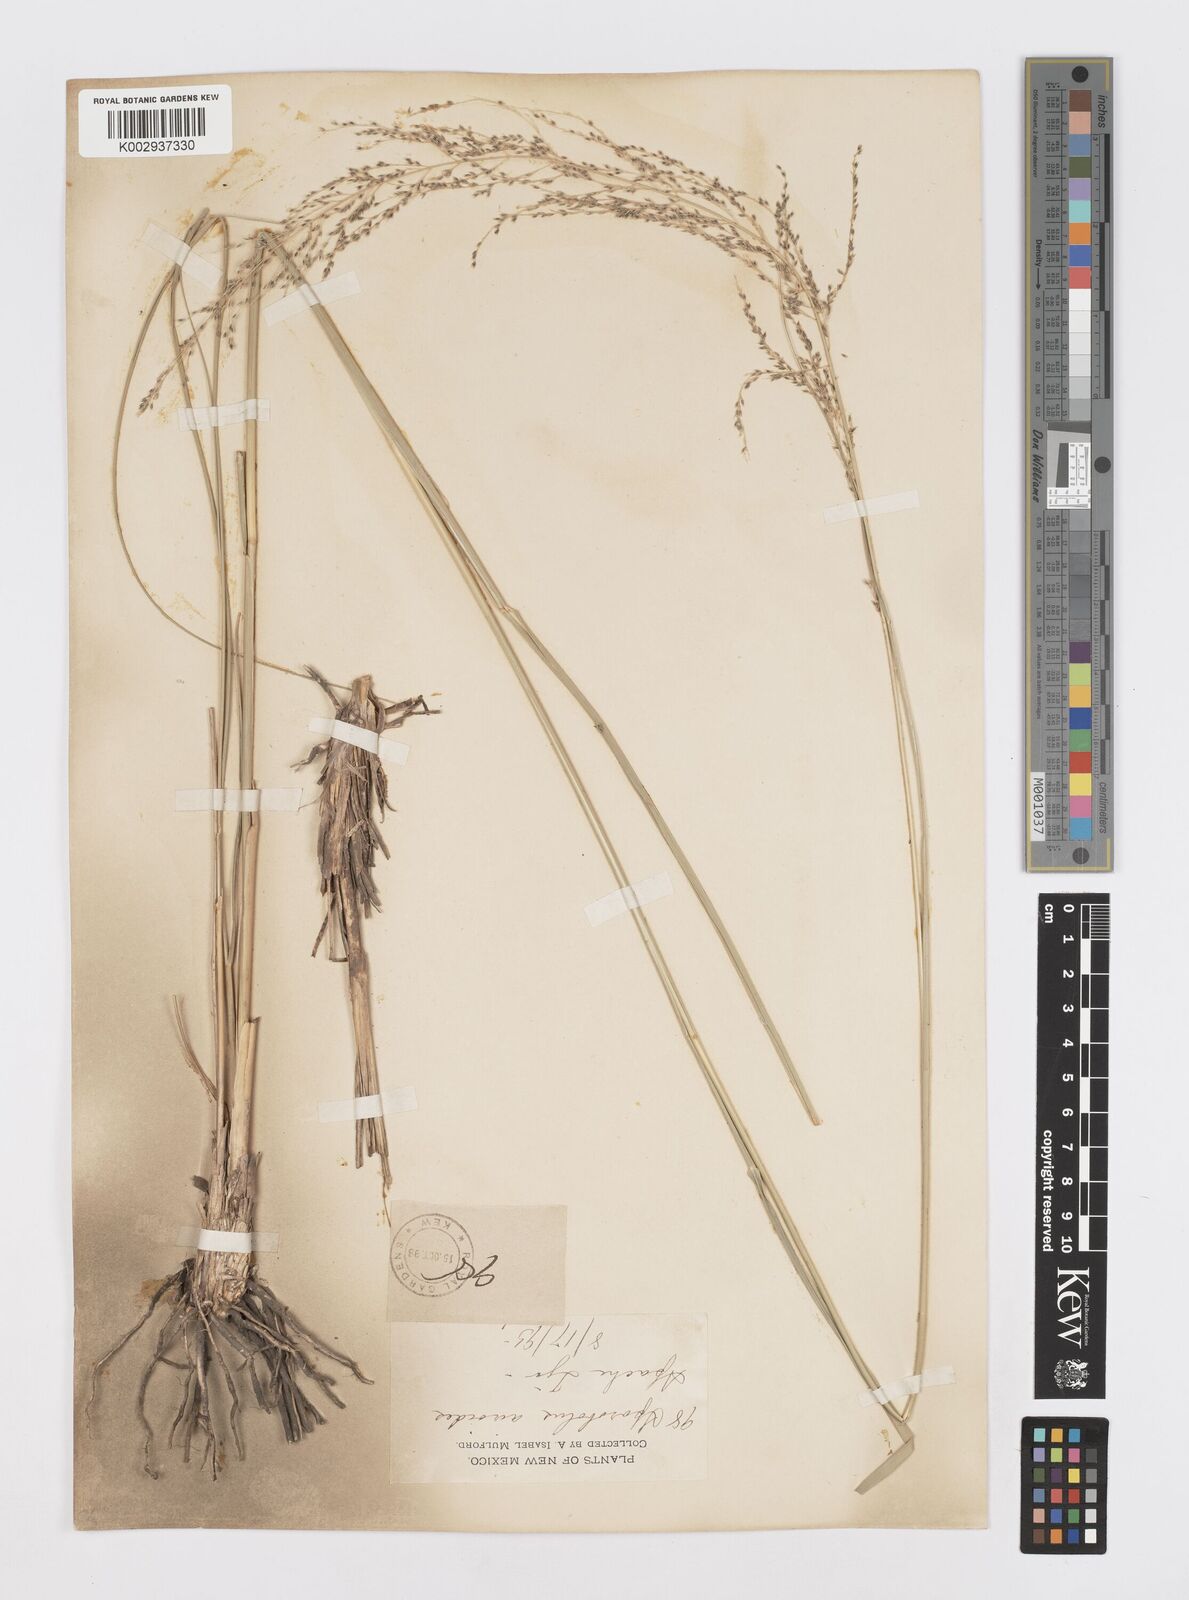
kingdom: Plantae
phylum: Tracheophyta
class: Liliopsida
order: Poales
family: Poaceae
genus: Sporobolus
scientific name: Sporobolus airoides
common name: Alkali sacaton
